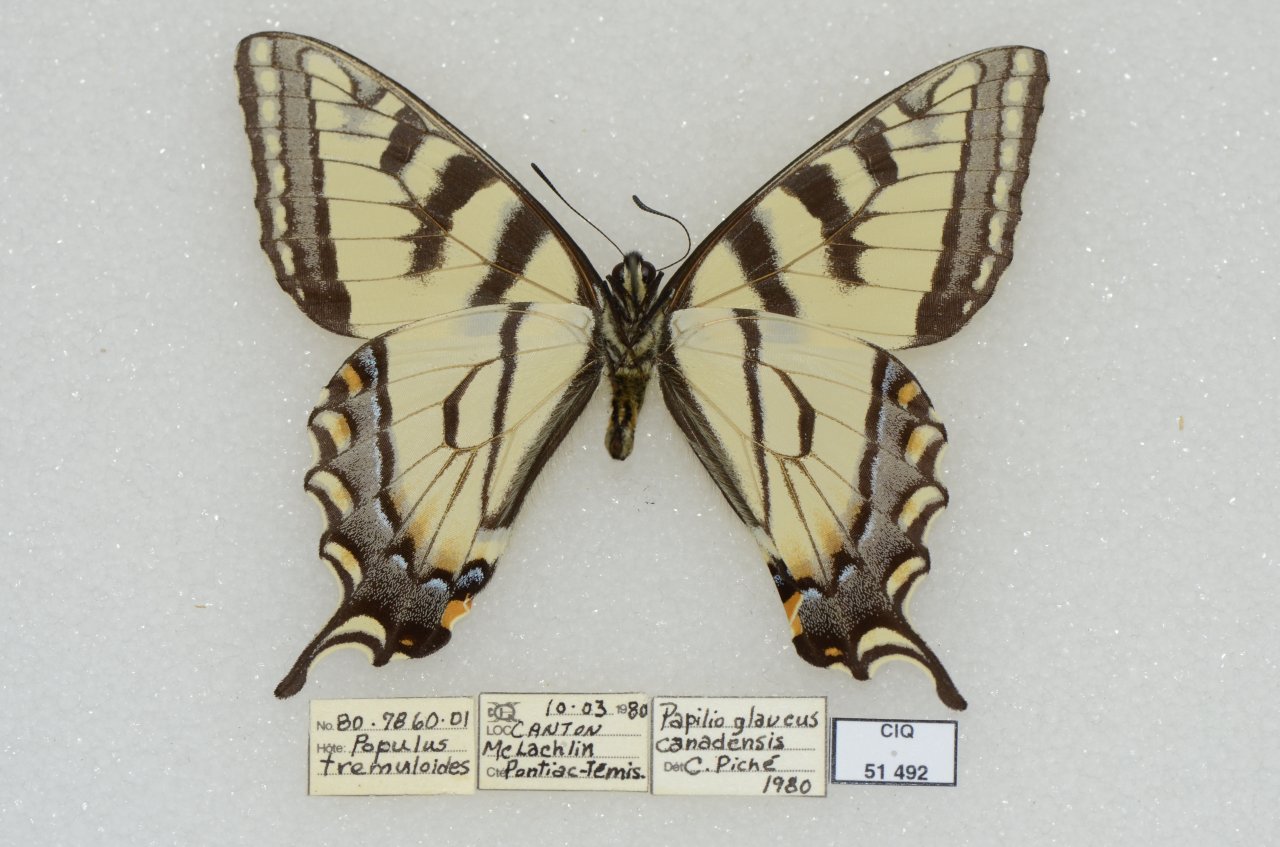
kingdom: Animalia
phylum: Arthropoda
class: Insecta
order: Lepidoptera
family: Papilionidae
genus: Pterourus
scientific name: Pterourus canadensis
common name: Canadian Tiger Swallowtail
